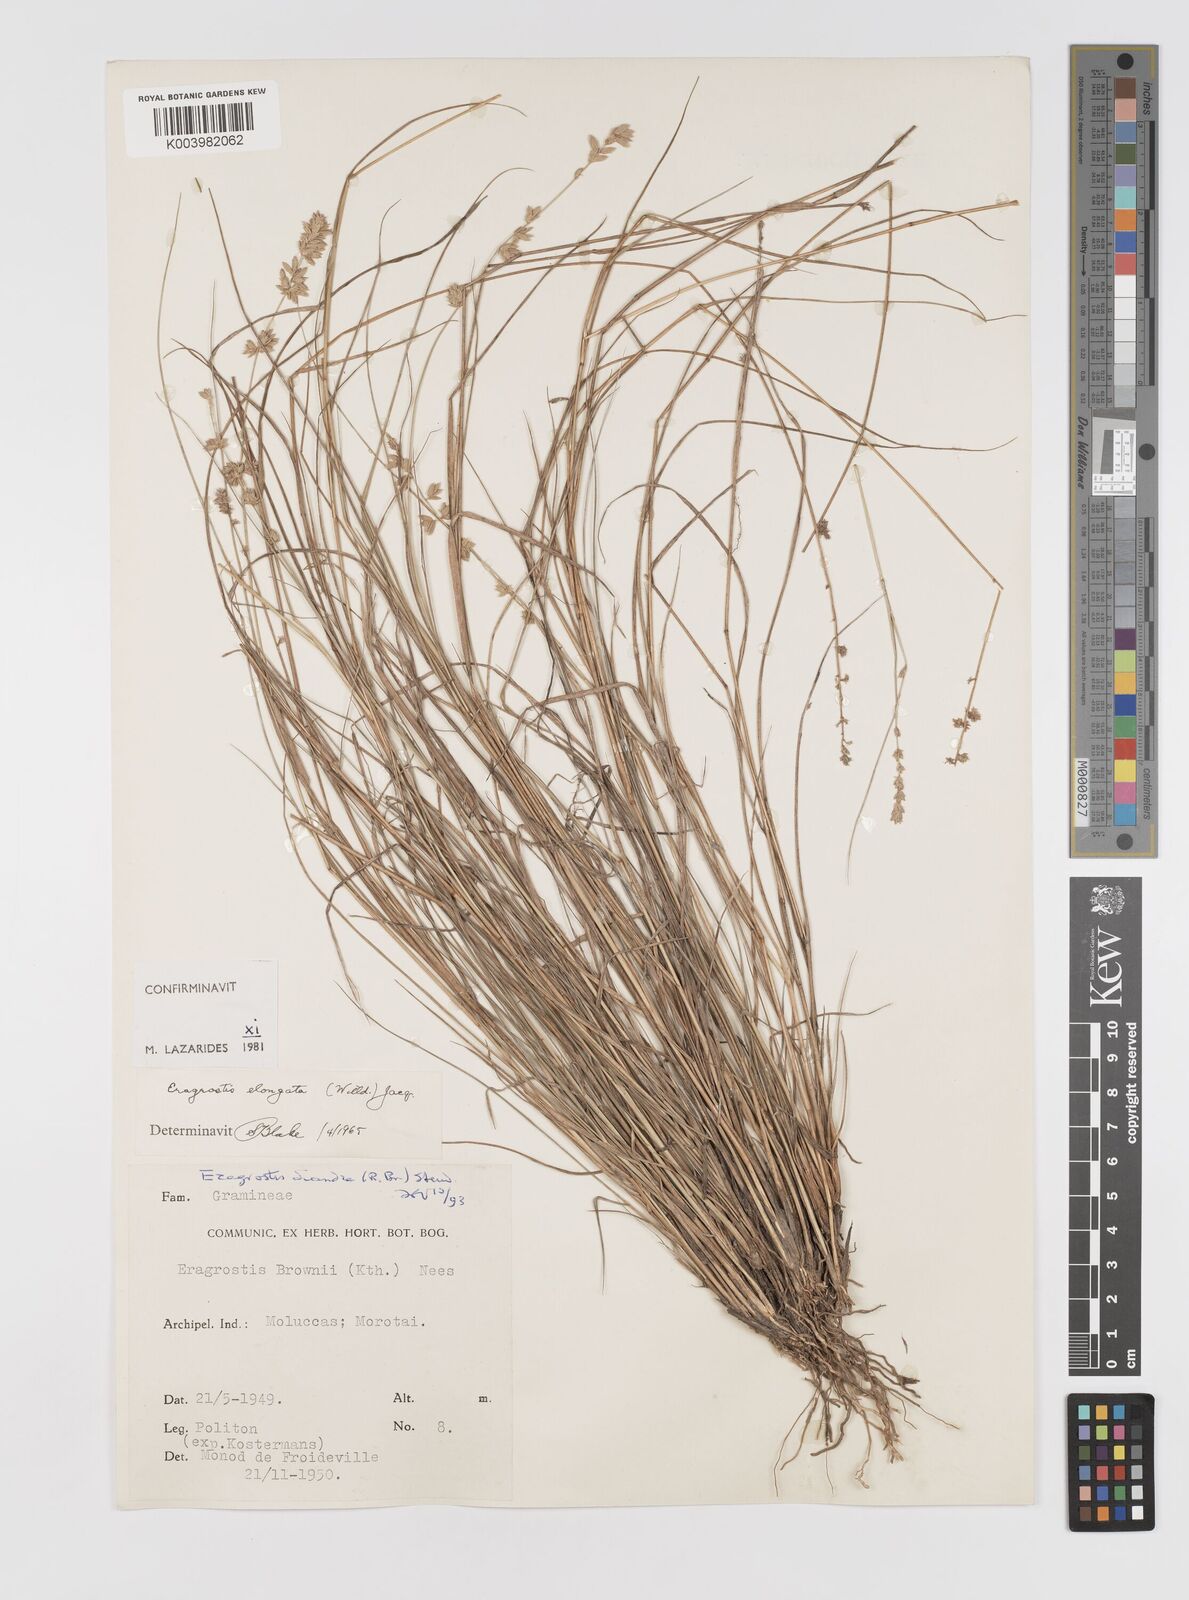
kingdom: Plantae
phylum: Tracheophyta
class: Liliopsida
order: Poales
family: Poaceae
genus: Eragrostis
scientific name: Eragrostis elongata
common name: Long lovegrass
